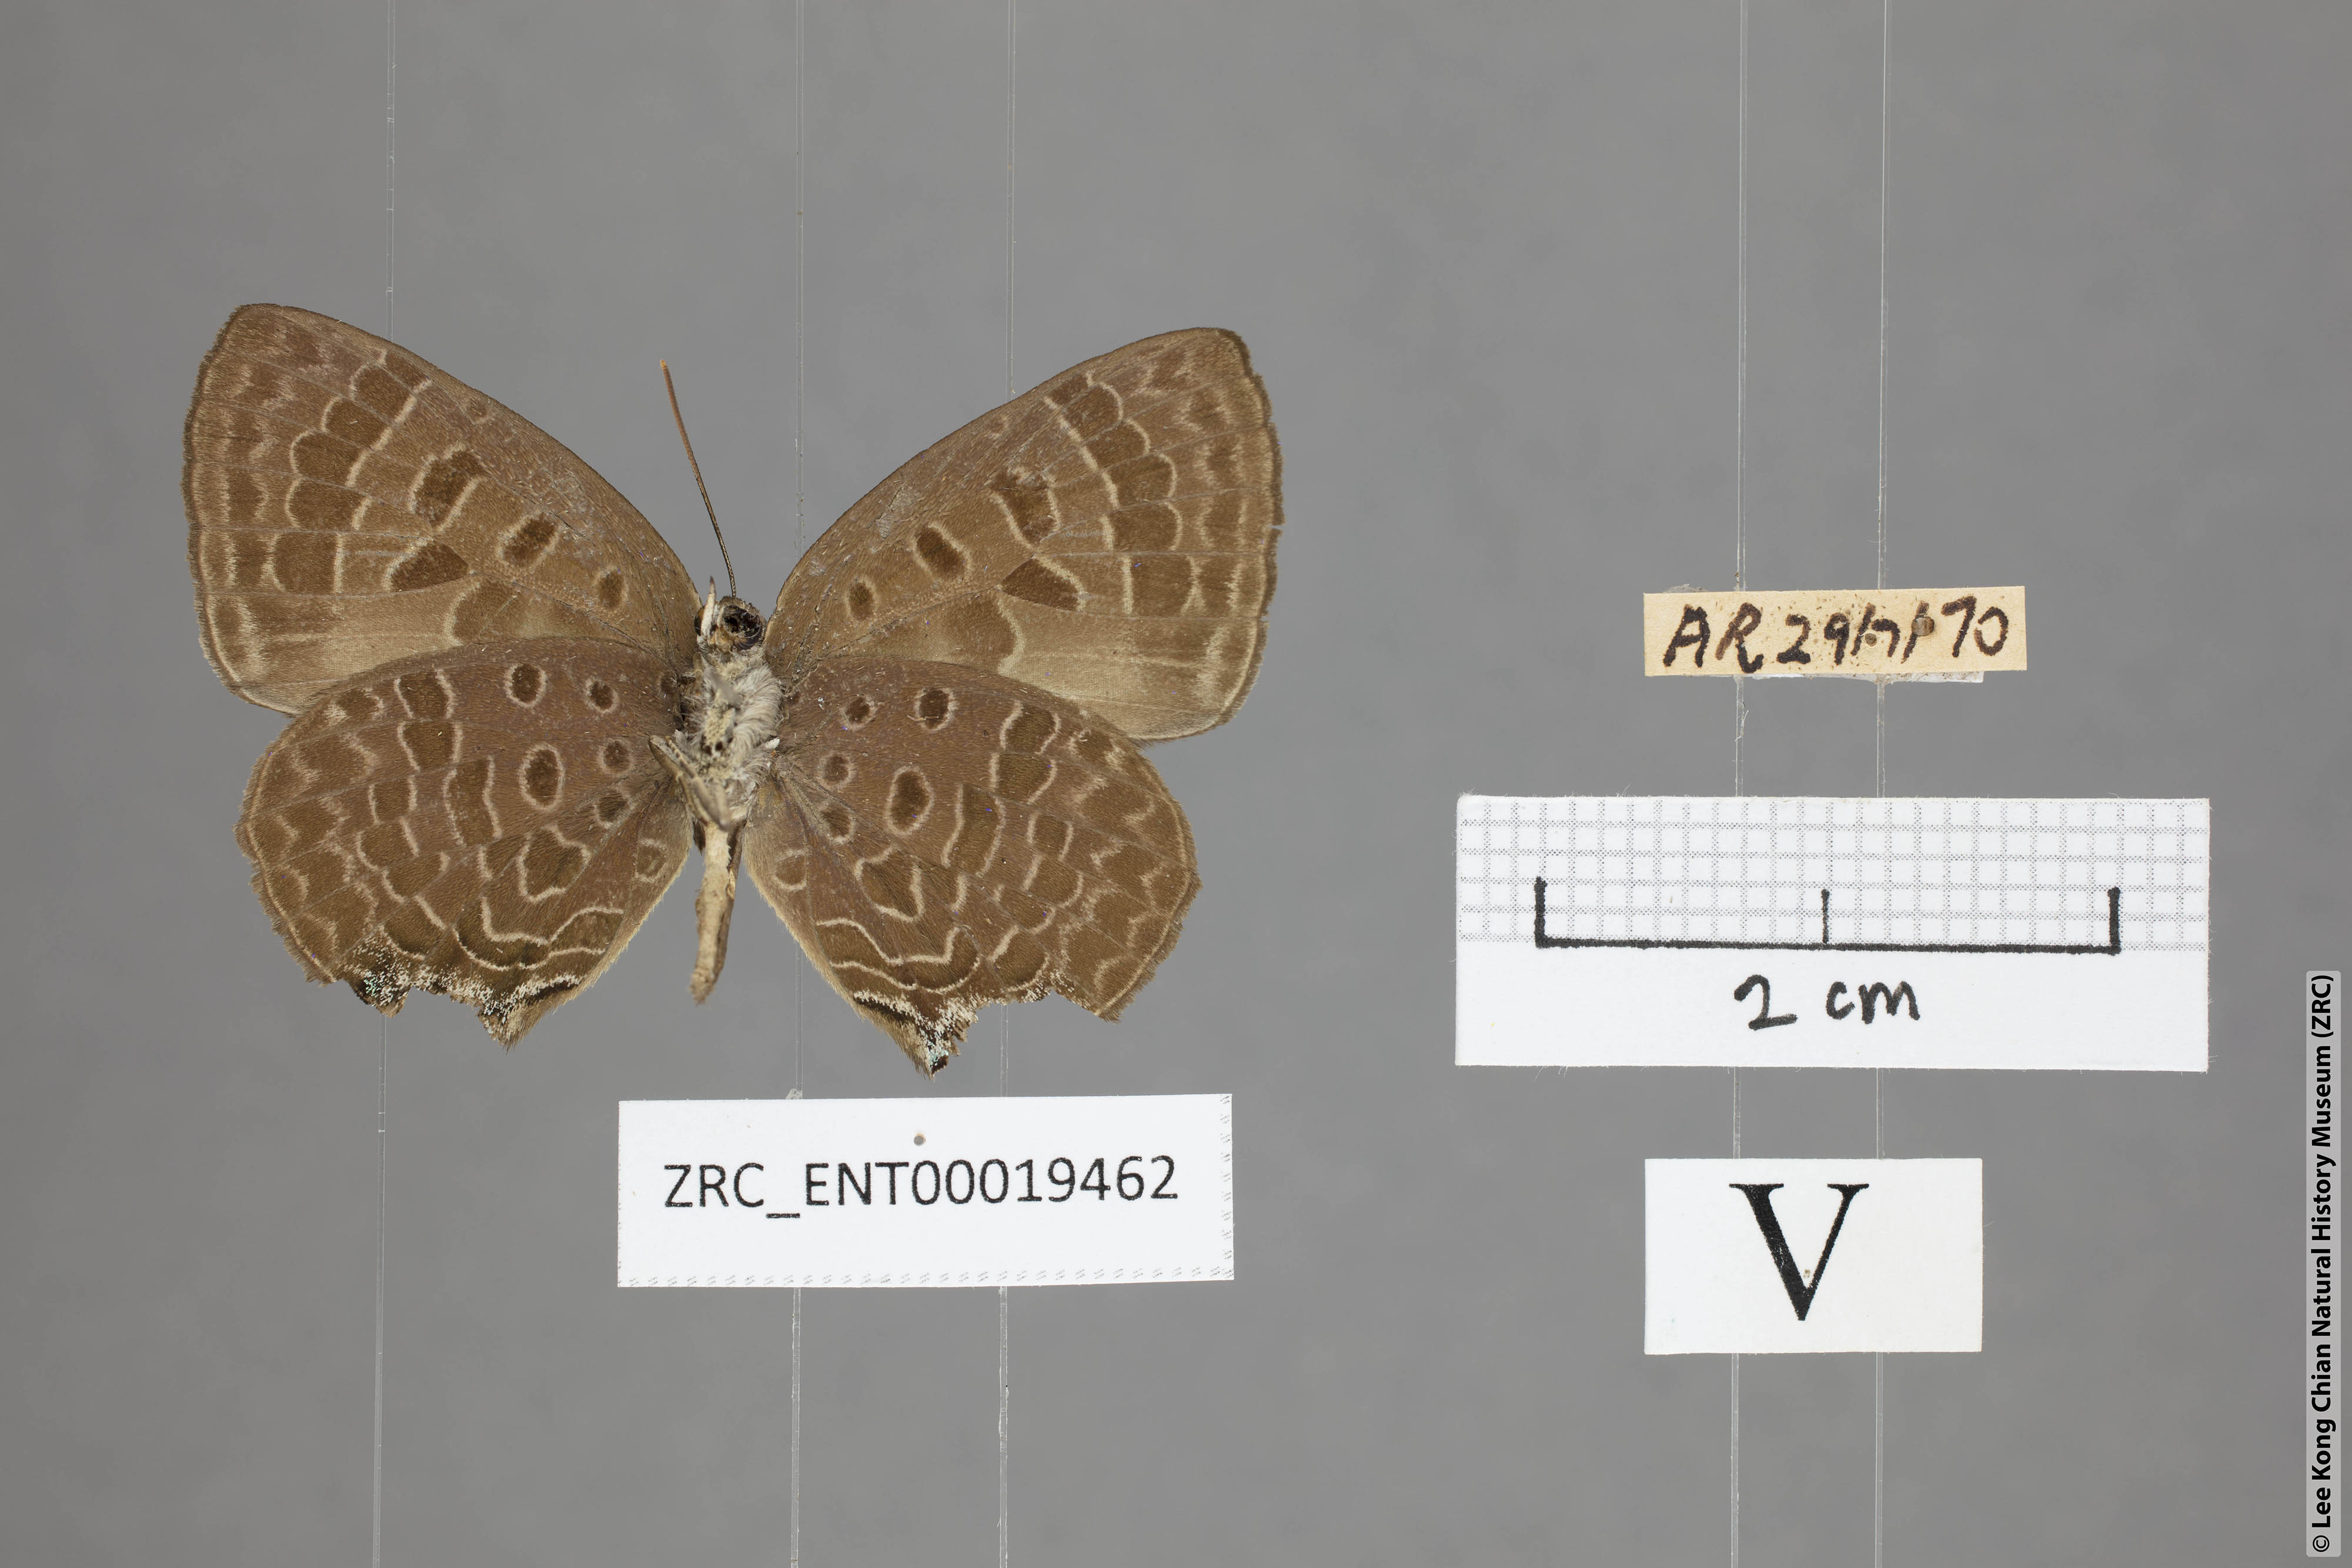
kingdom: Animalia
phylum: Arthropoda
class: Insecta
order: Lepidoptera
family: Lycaenidae
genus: Arhopala
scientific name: Arhopala azinis
